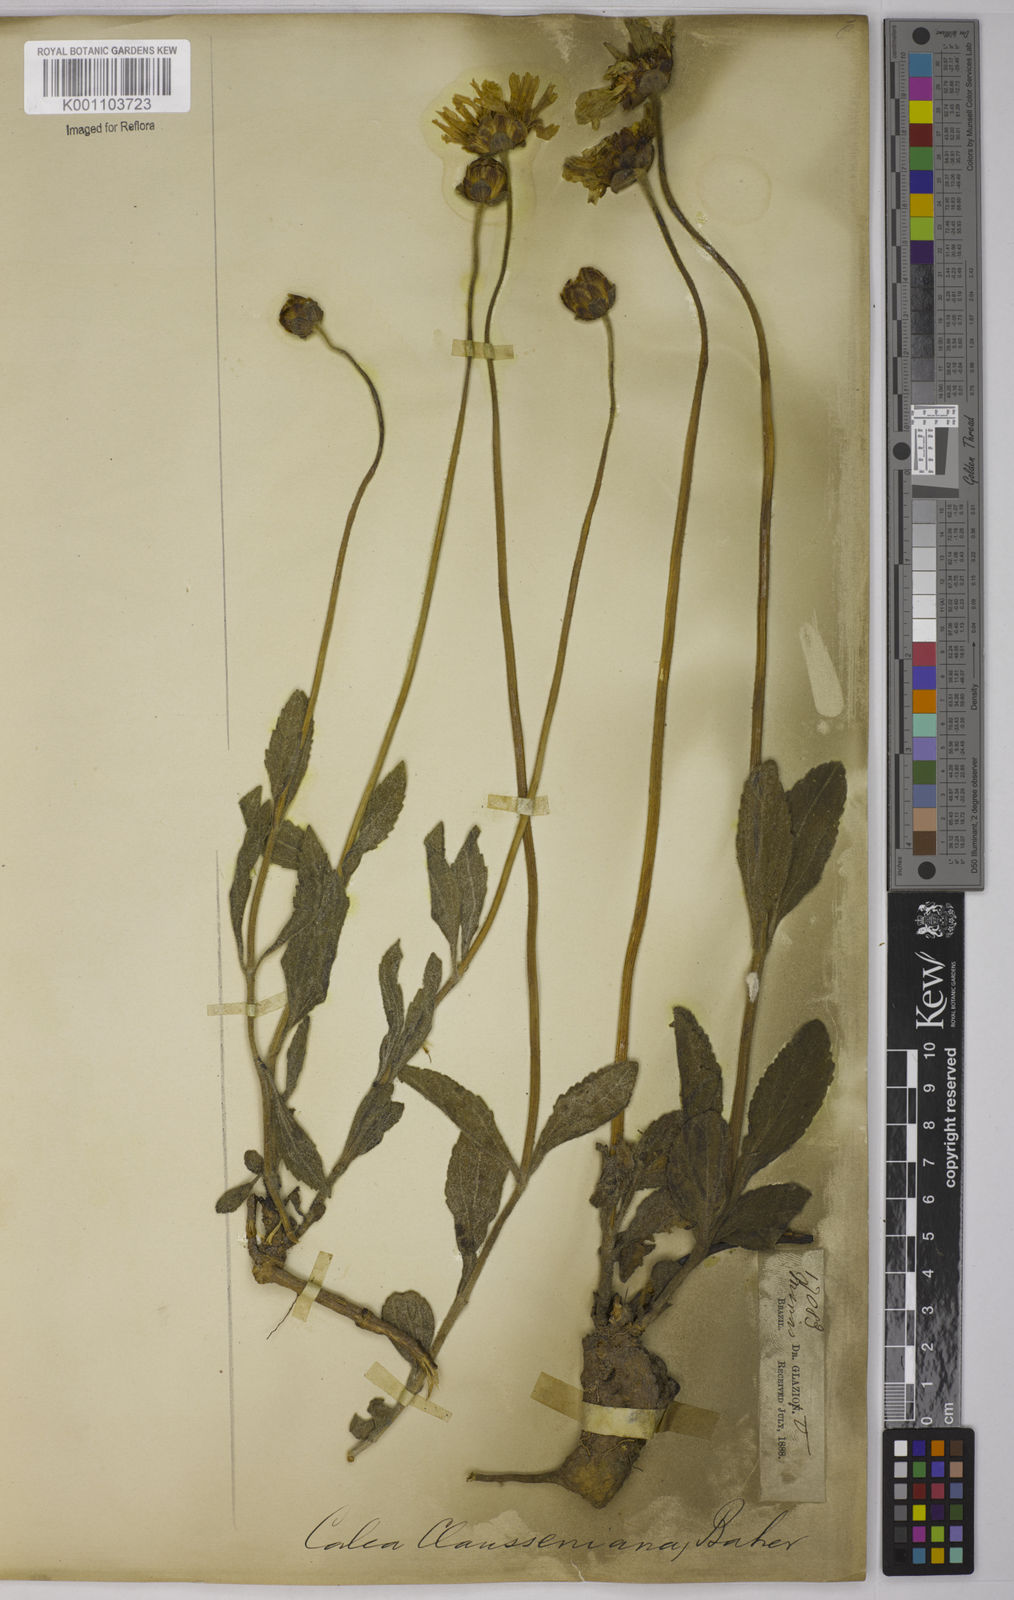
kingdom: Plantae
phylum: Tracheophyta
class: Magnoliopsida
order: Asterales
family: Asteraceae
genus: Calea
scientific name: Calea clausseniana
